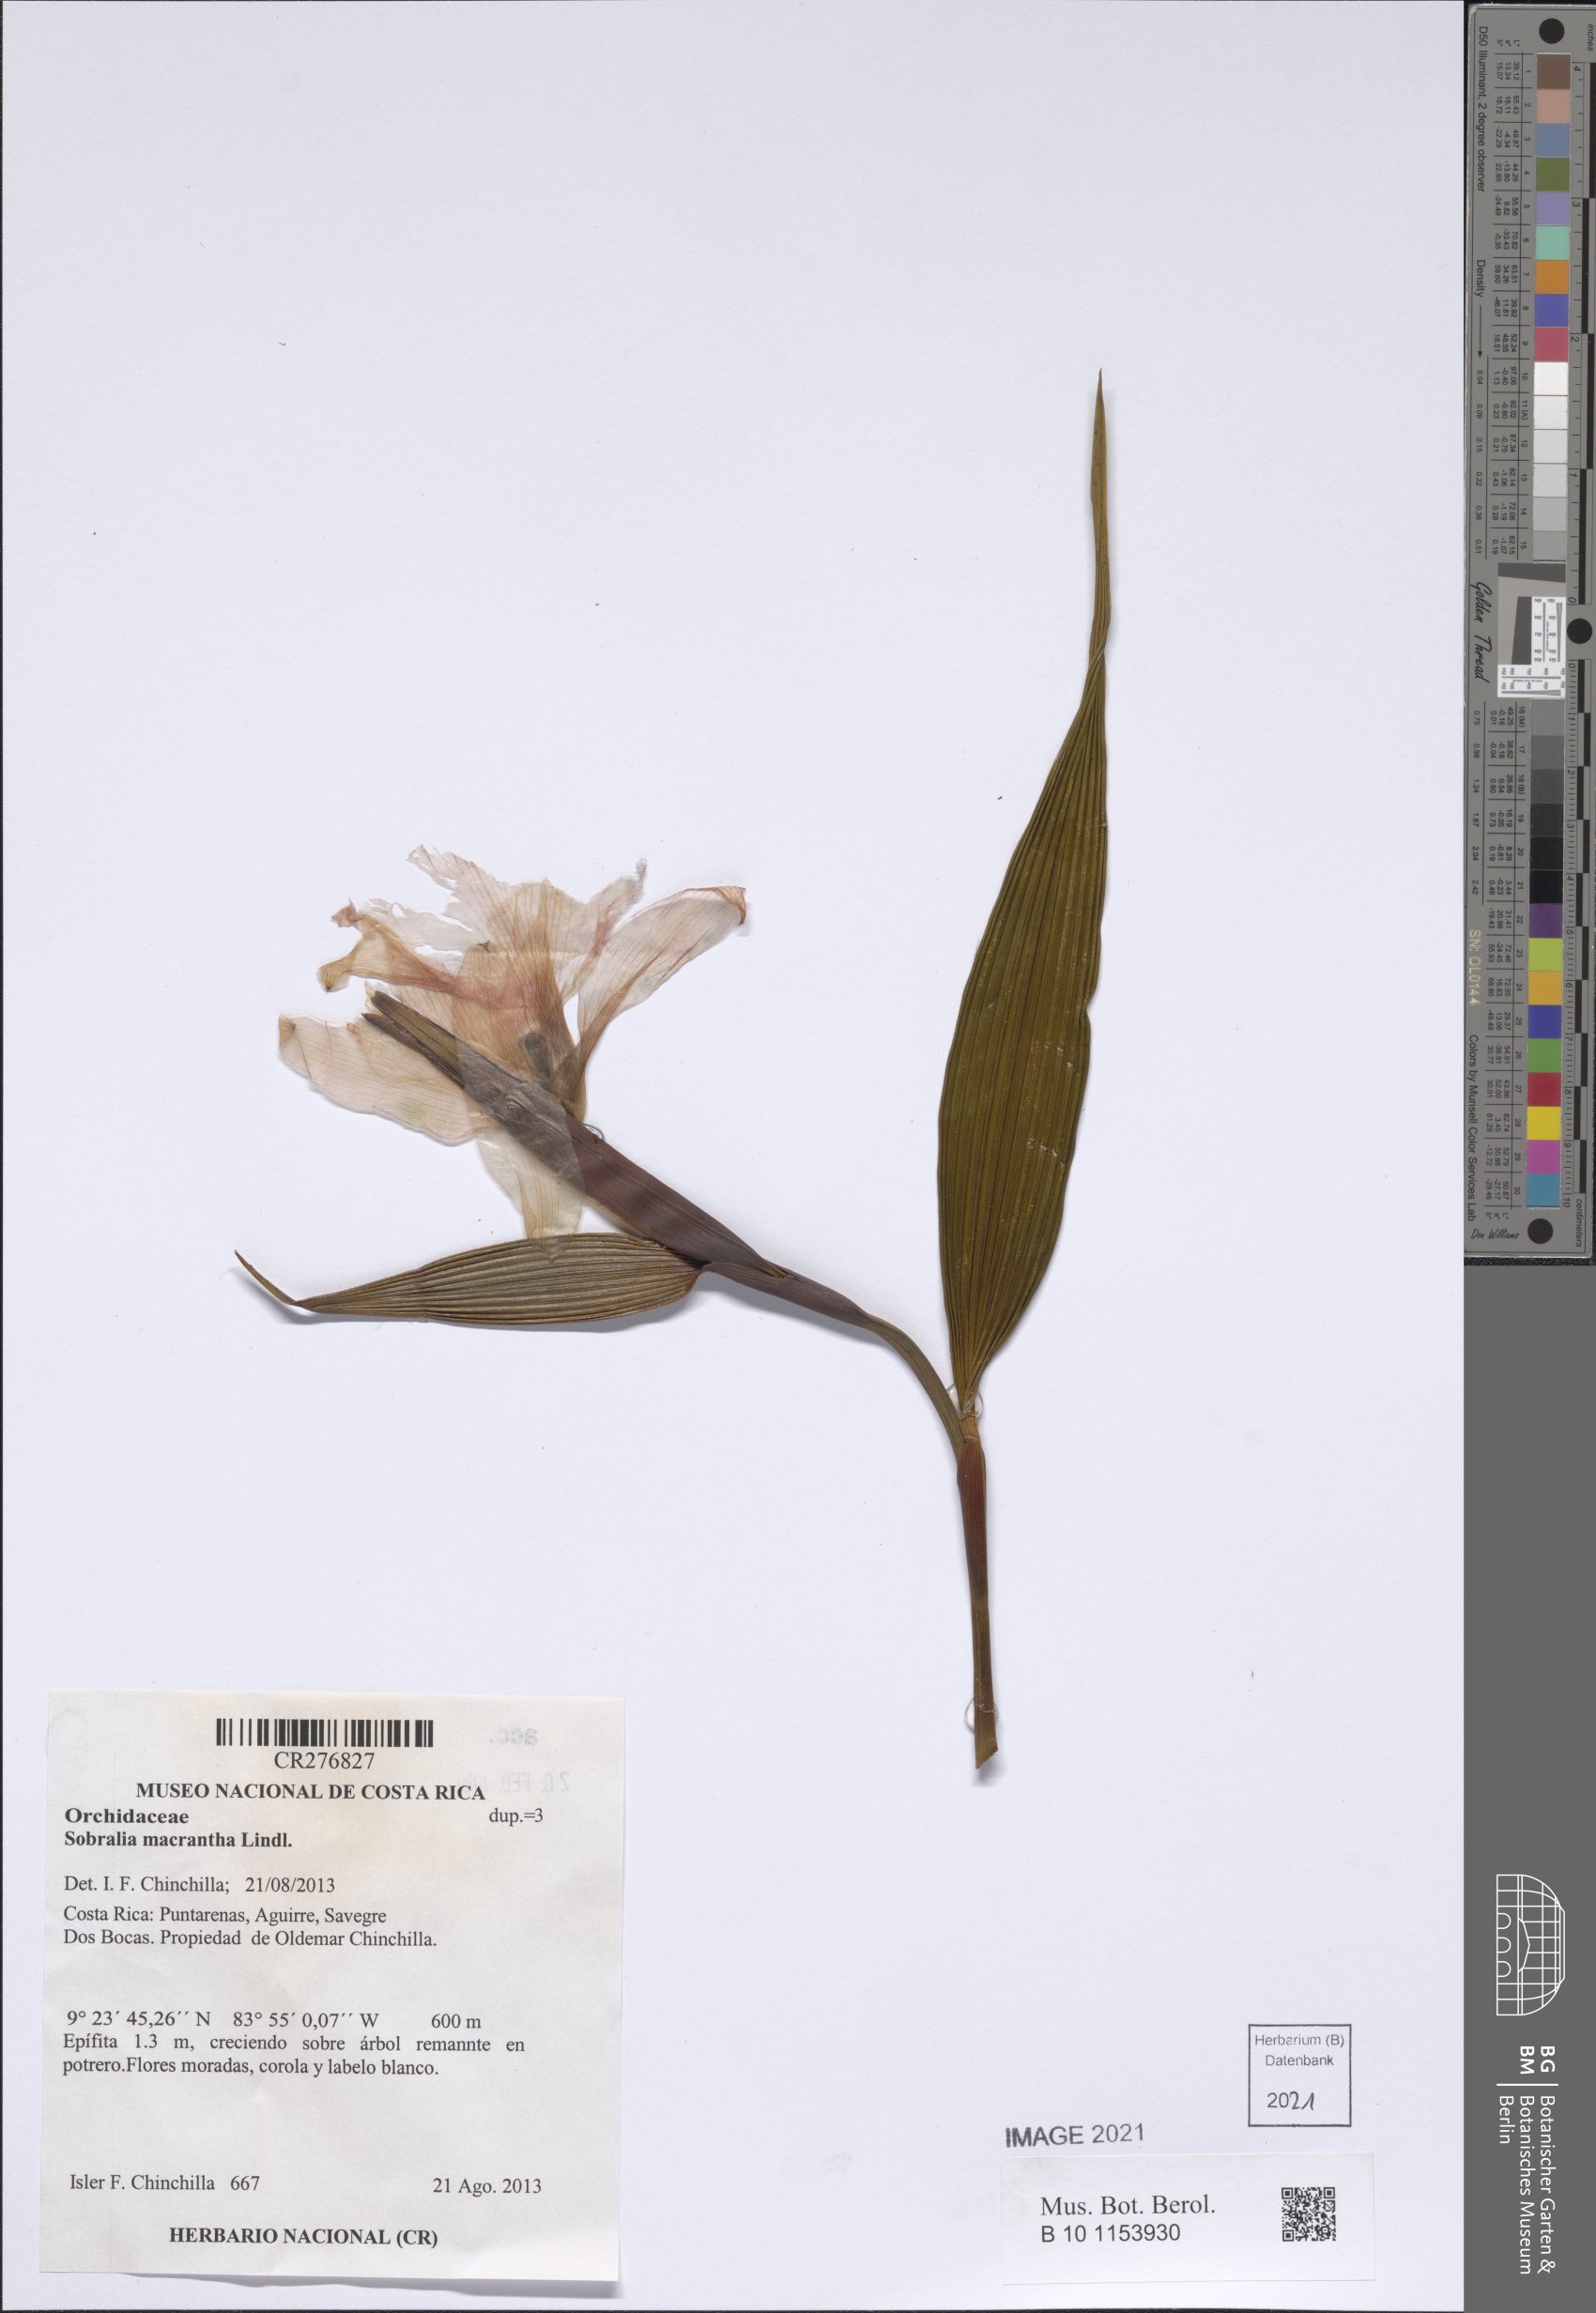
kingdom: Plantae
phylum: Tracheophyta
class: Liliopsida
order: Asparagales
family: Orchidaceae
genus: Sobralia
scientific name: Sobralia macrantha
